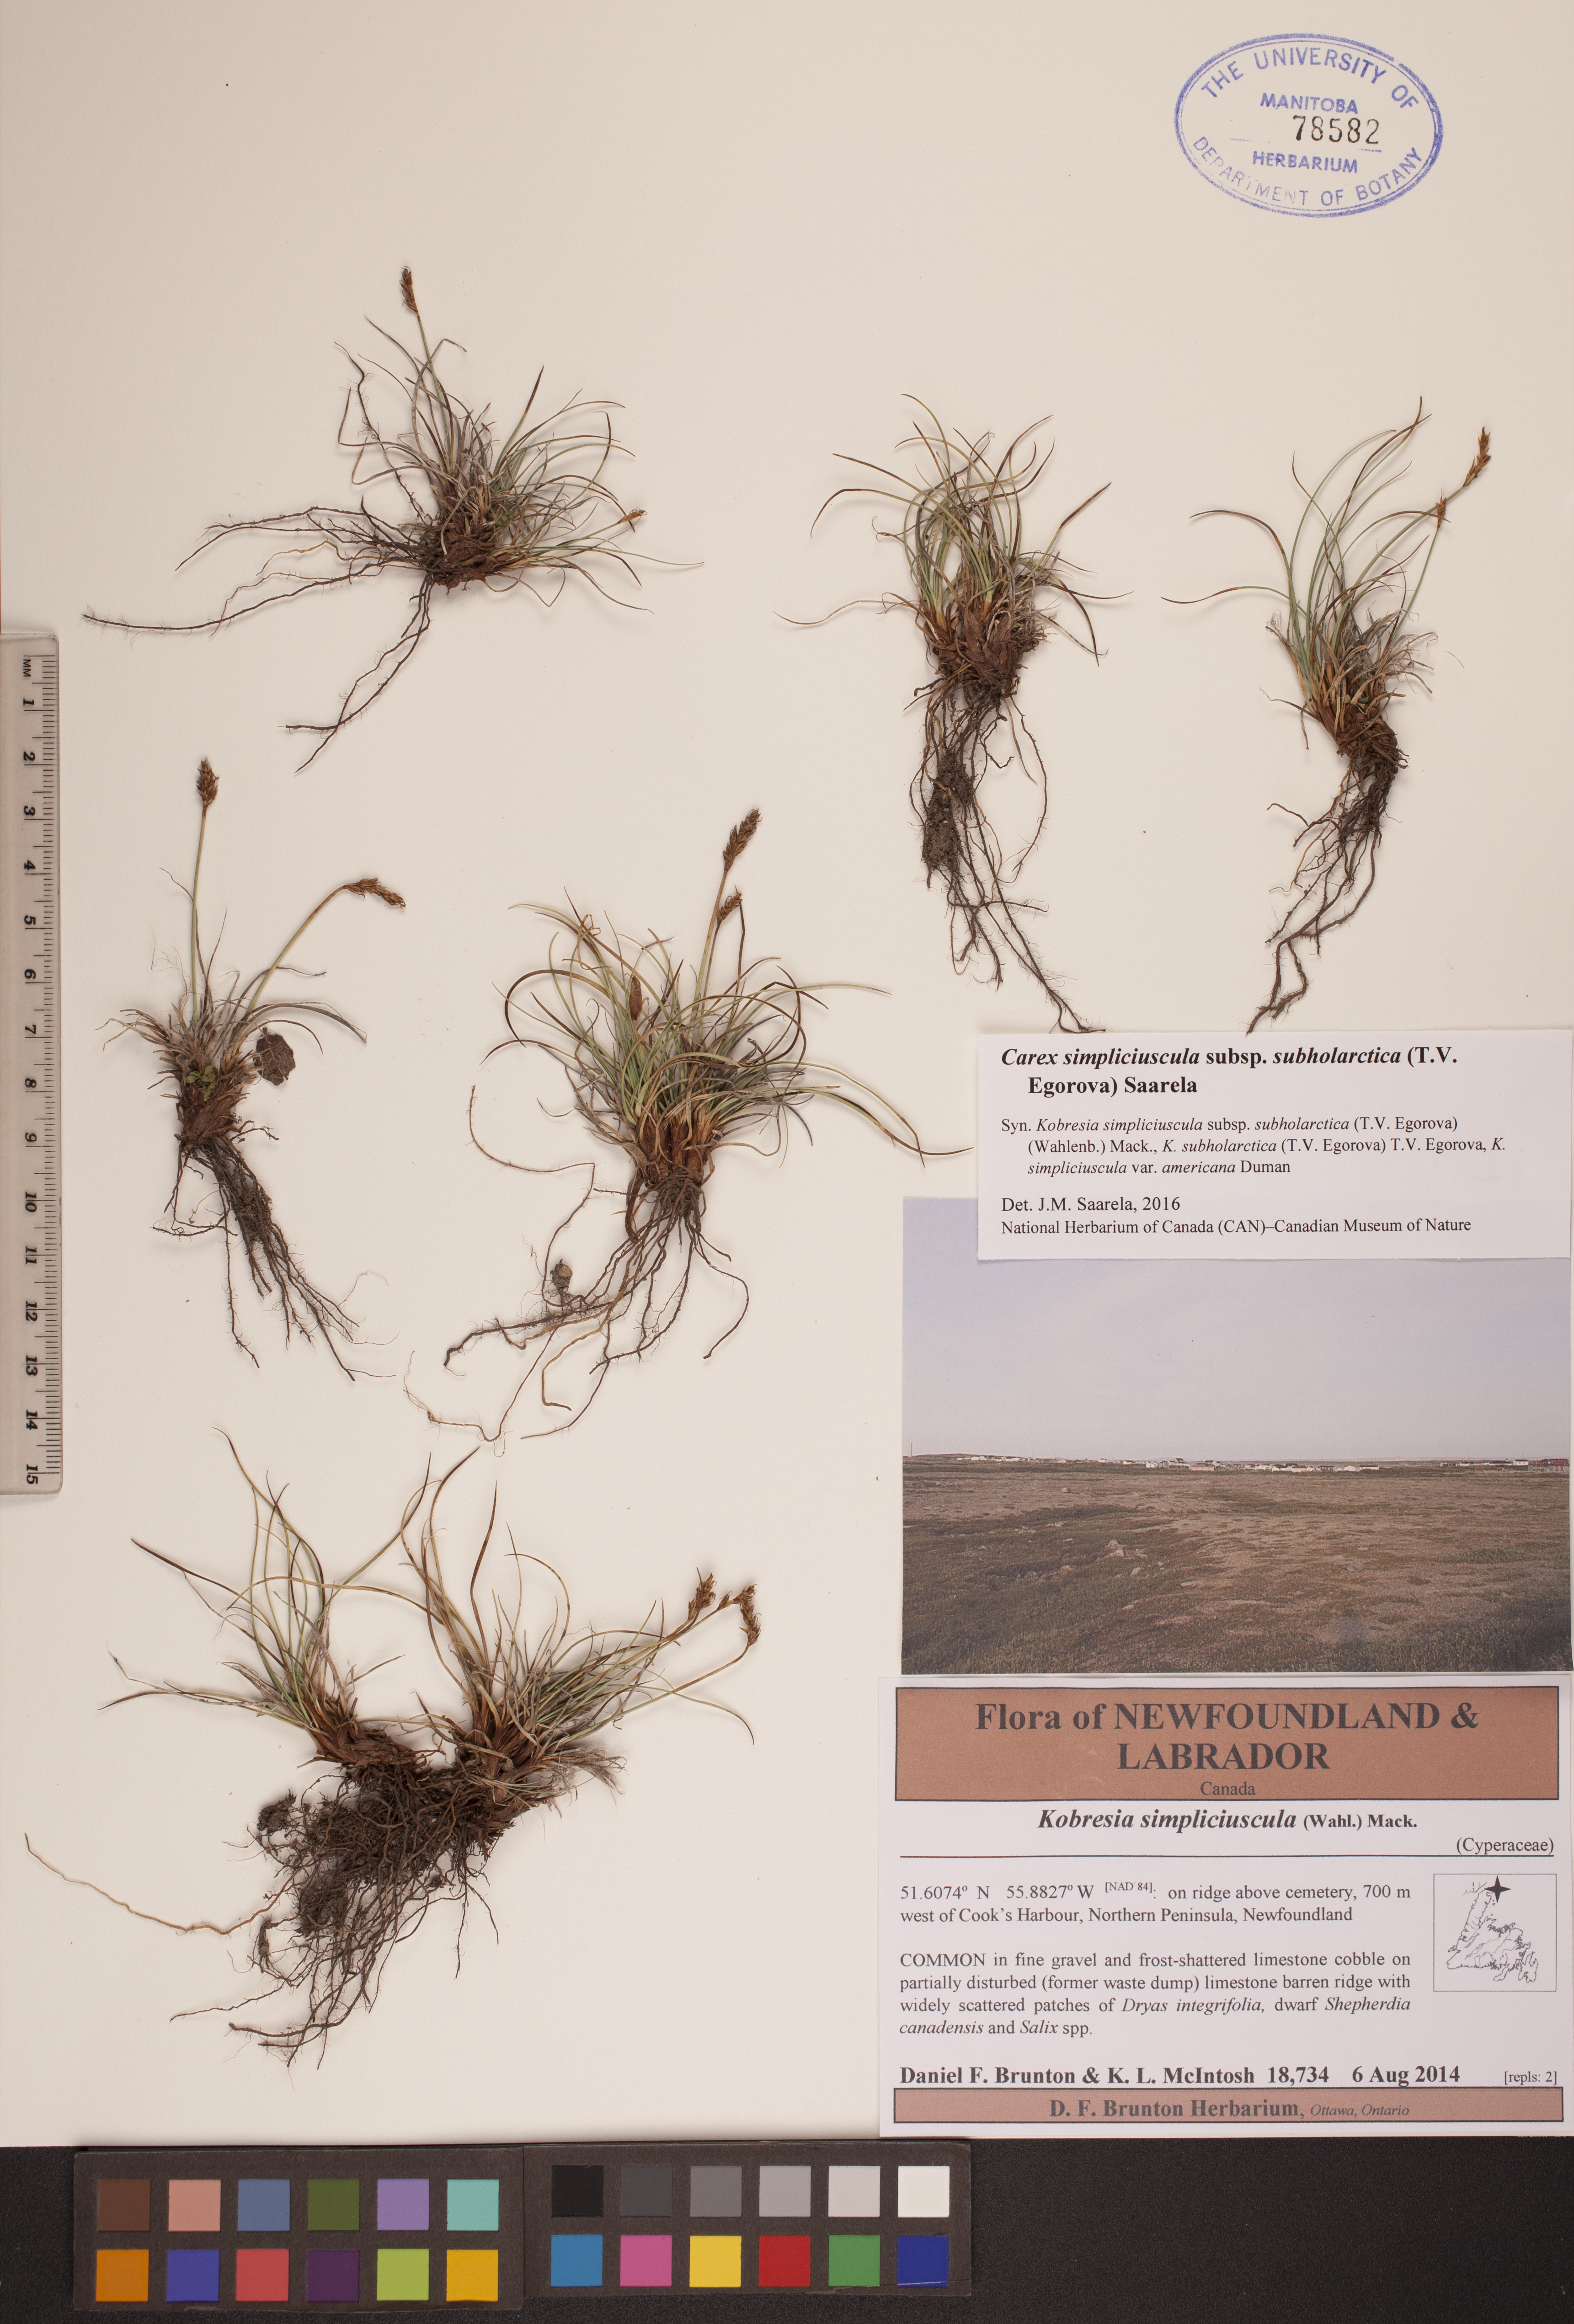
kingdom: Plantae
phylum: Tracheophyta
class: Liliopsida
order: Poales
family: Cyperaceae
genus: Carex
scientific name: Carex simpliciuscula
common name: Simple bog sedge
